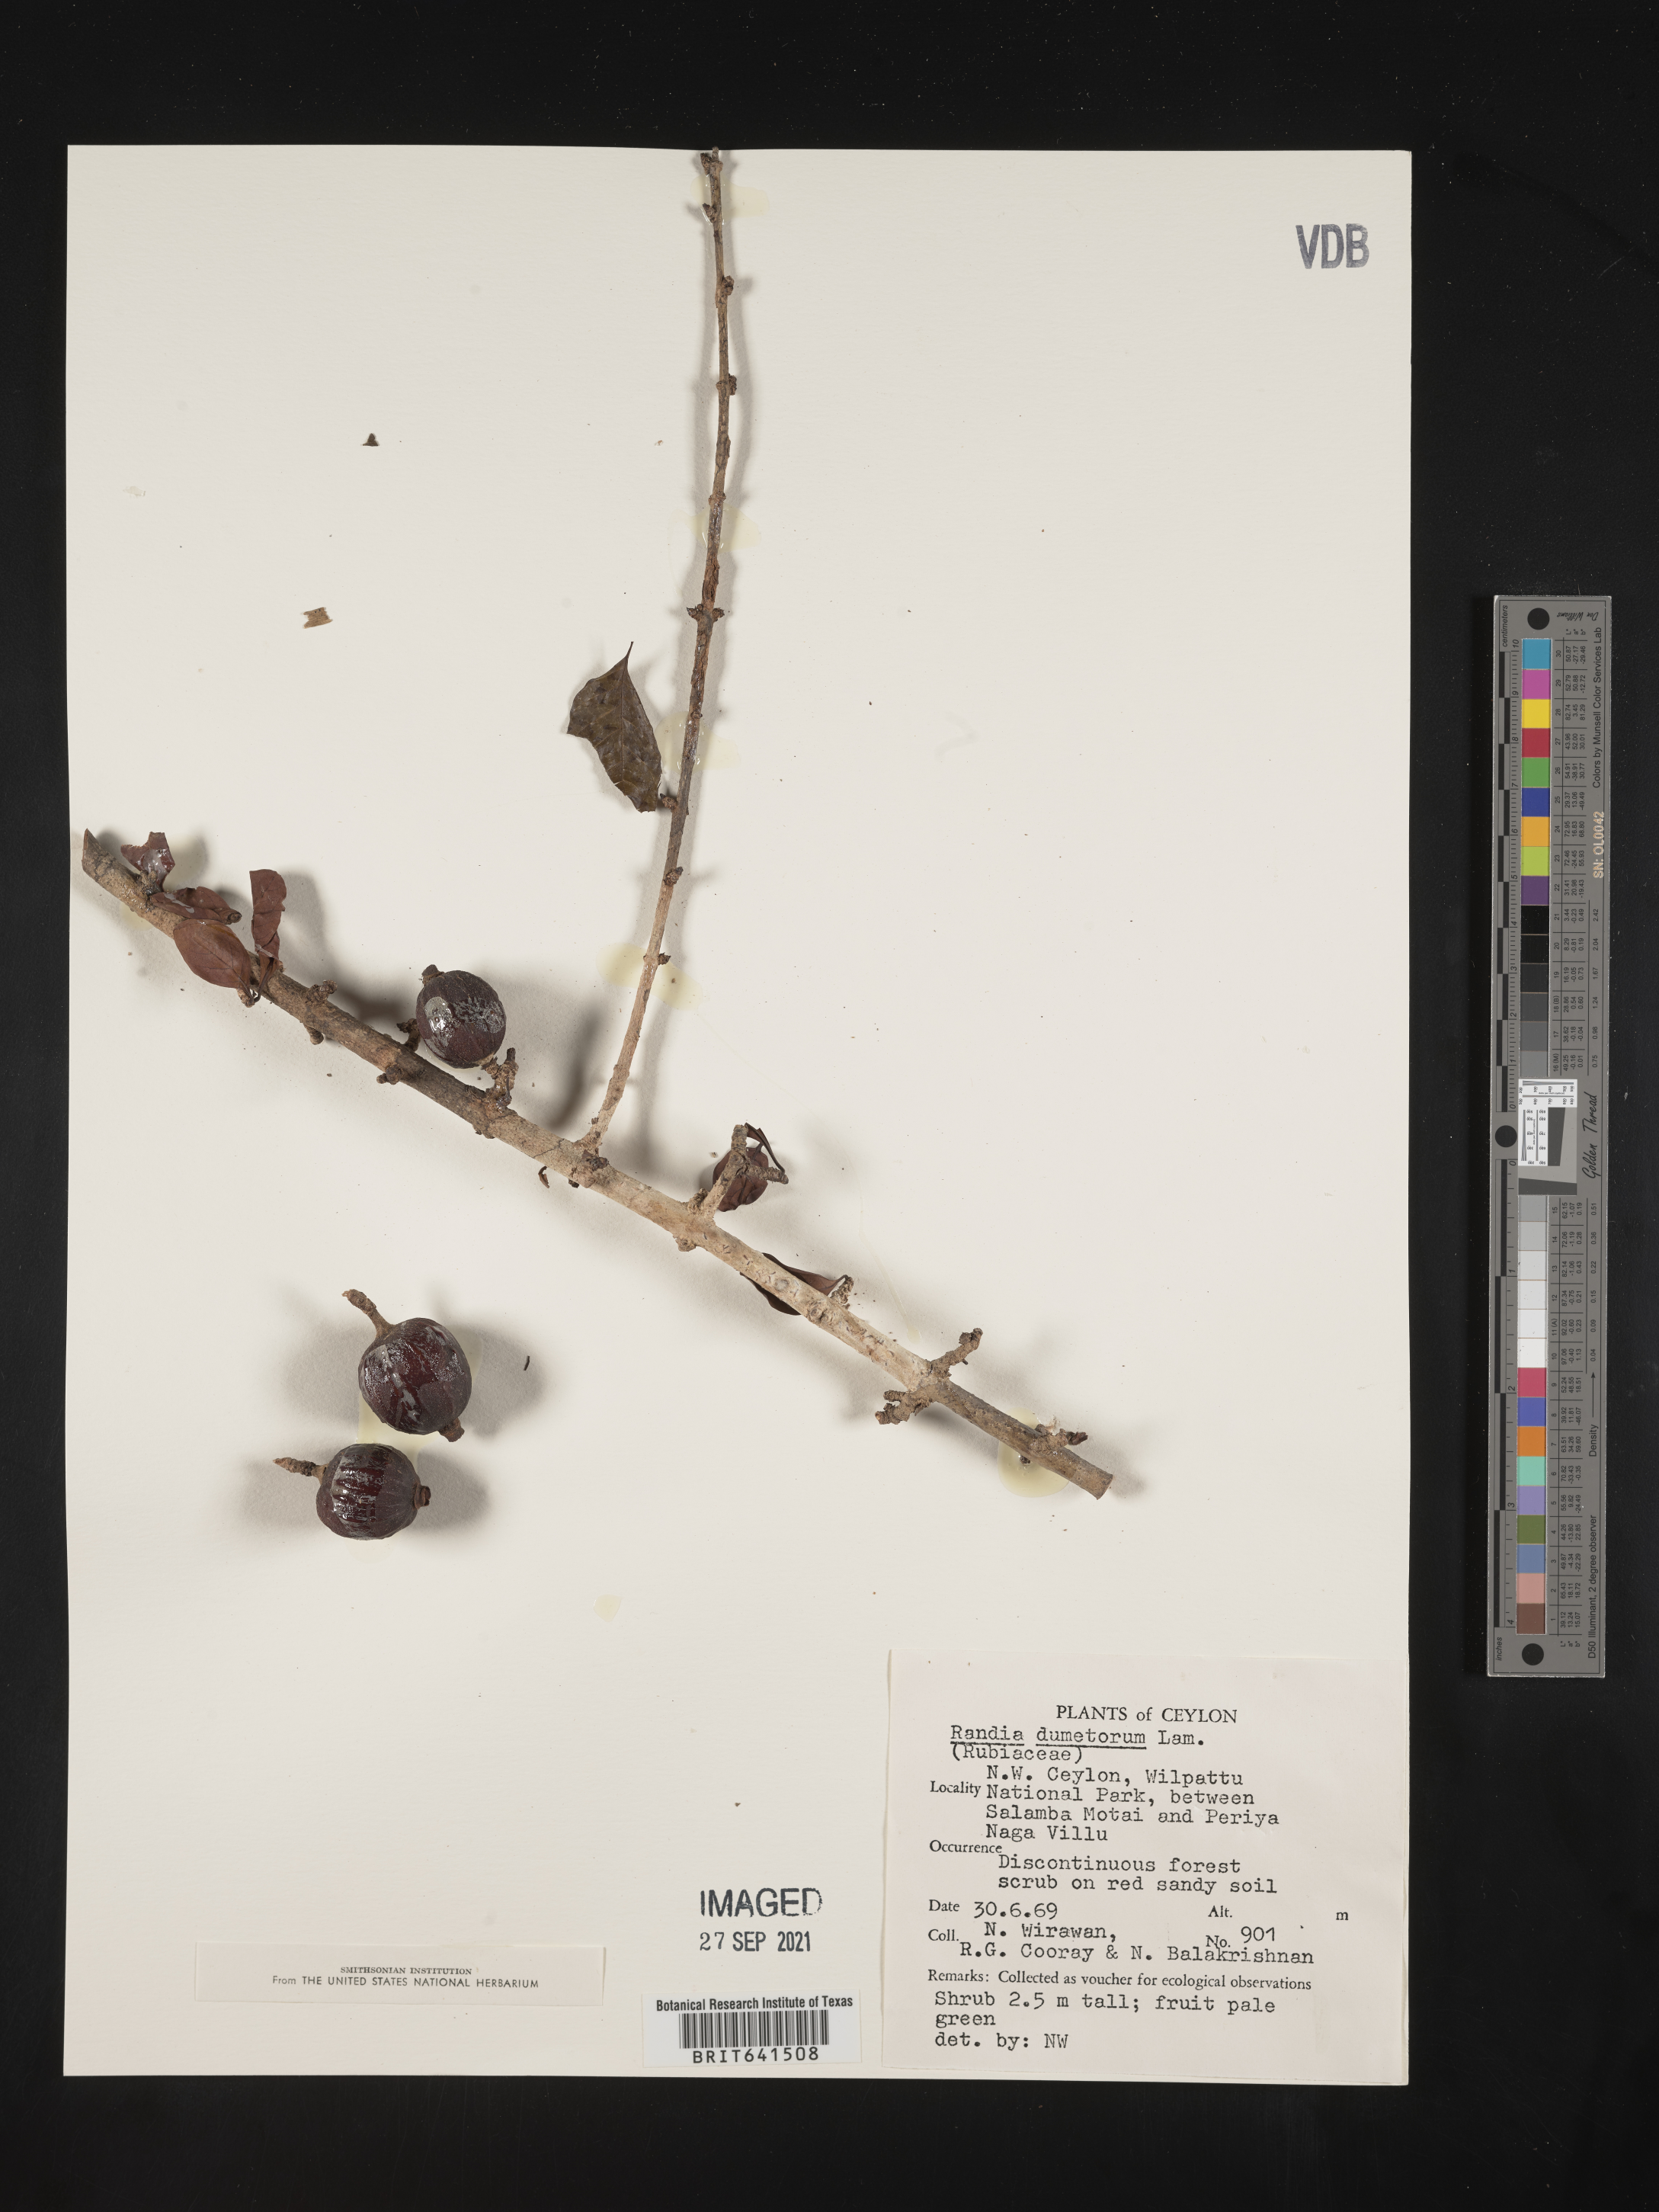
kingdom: Plantae
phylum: Tracheophyta
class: Magnoliopsida
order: Gentianales
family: Rubiaceae
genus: Randia
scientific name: Randia
